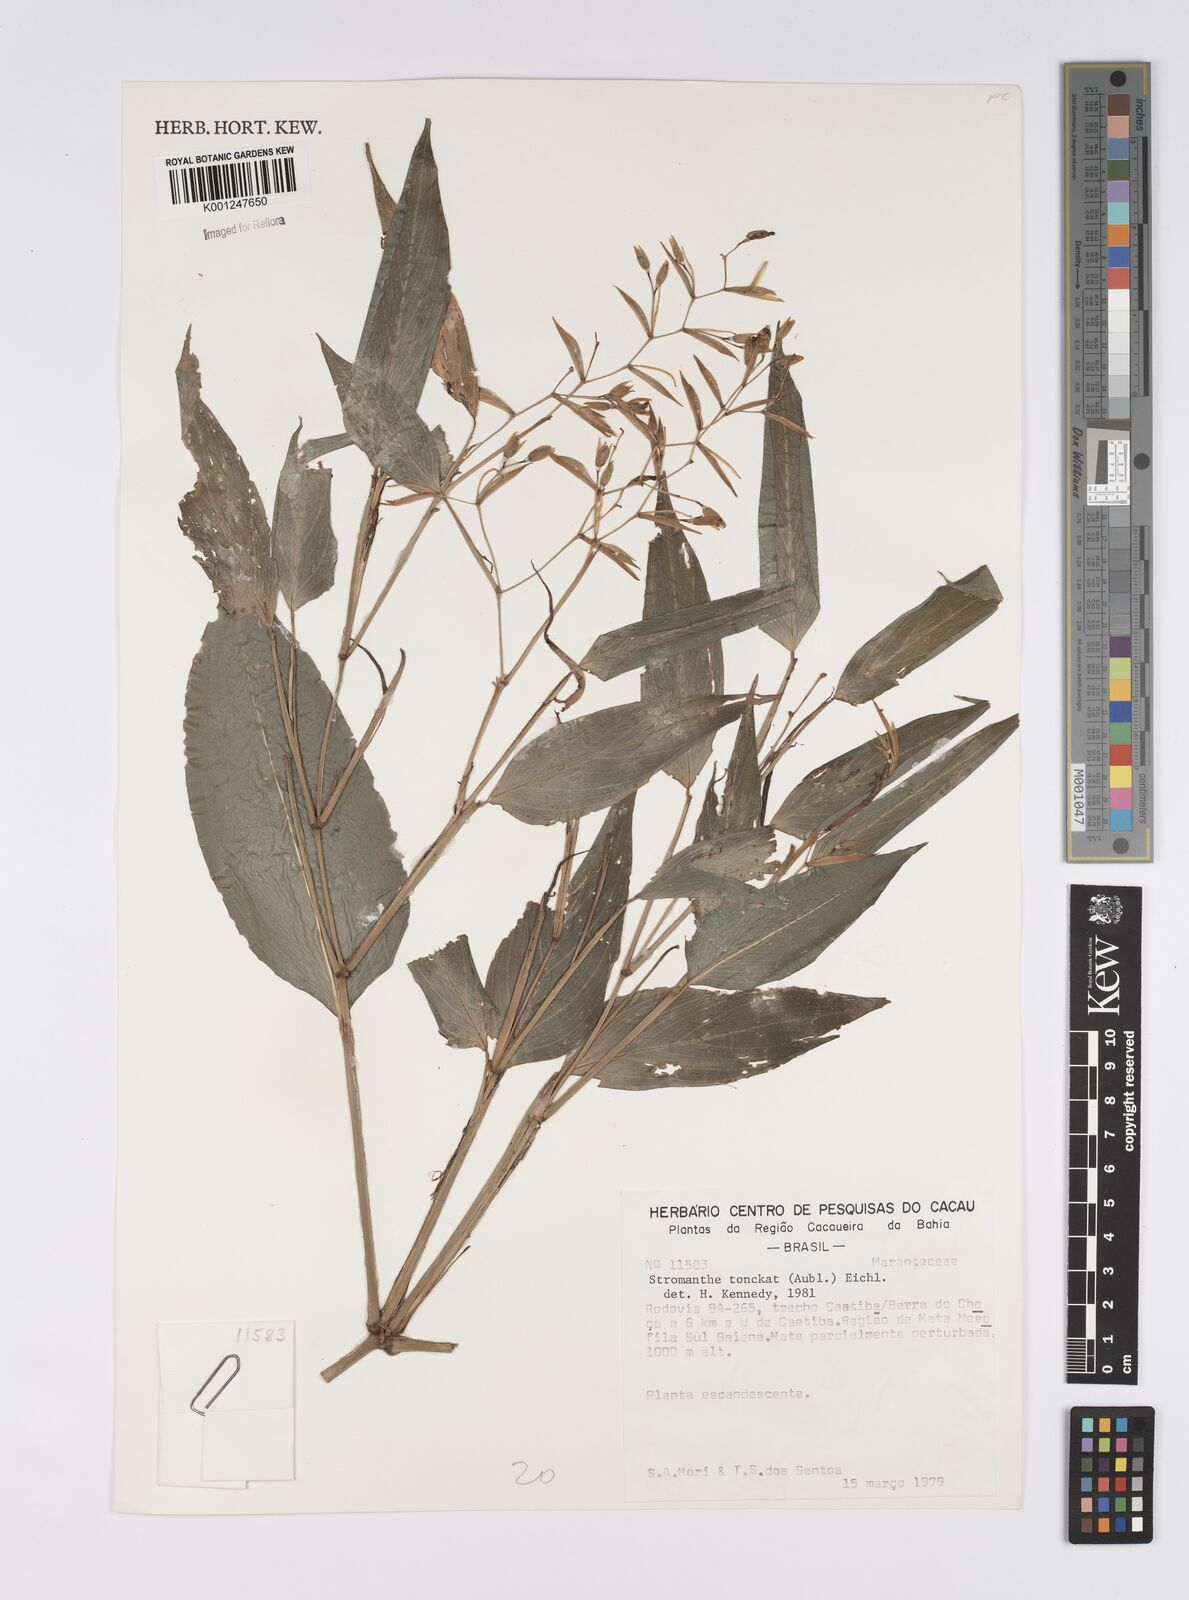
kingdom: Plantae
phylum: Tracheophyta
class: Liliopsida
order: Zingiberales
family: Marantaceae
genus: Stromanthe
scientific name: Stromanthe tonckat
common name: Stromanthe
